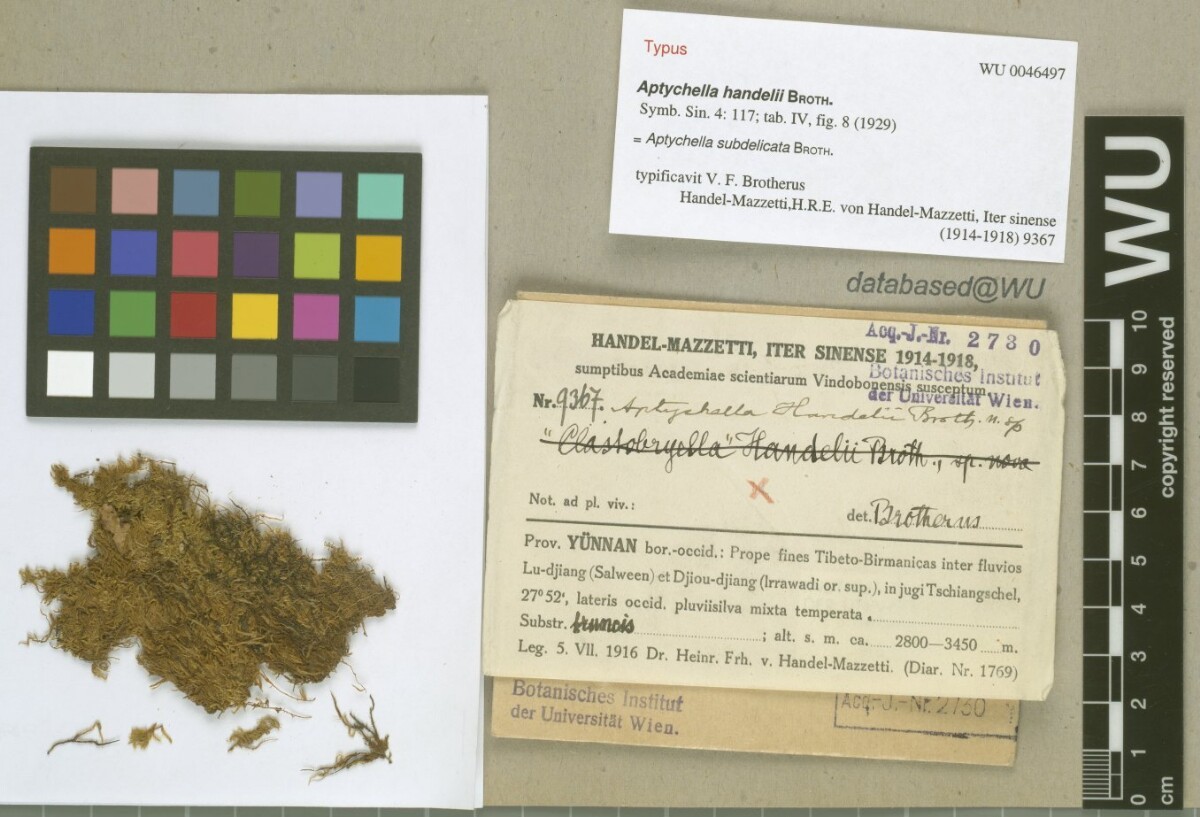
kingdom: Plantae
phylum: Bryophyta
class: Bryopsida
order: Hypnales
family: Pylaisiadelphaceae
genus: Aptychella
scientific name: Aptychella planula
